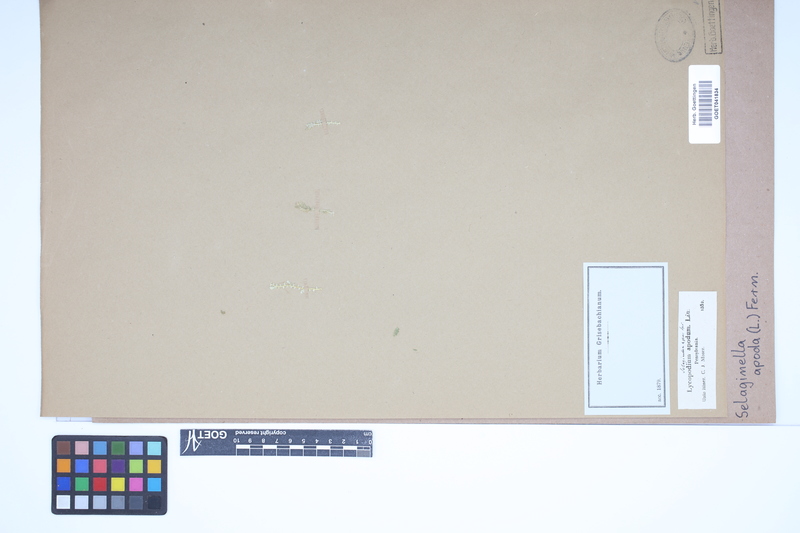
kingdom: Plantae
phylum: Tracheophyta
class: Lycopodiopsida
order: Selaginellales
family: Selaginellaceae
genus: Selaginella
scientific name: Selaginella apoda
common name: Creeping spikemoss
